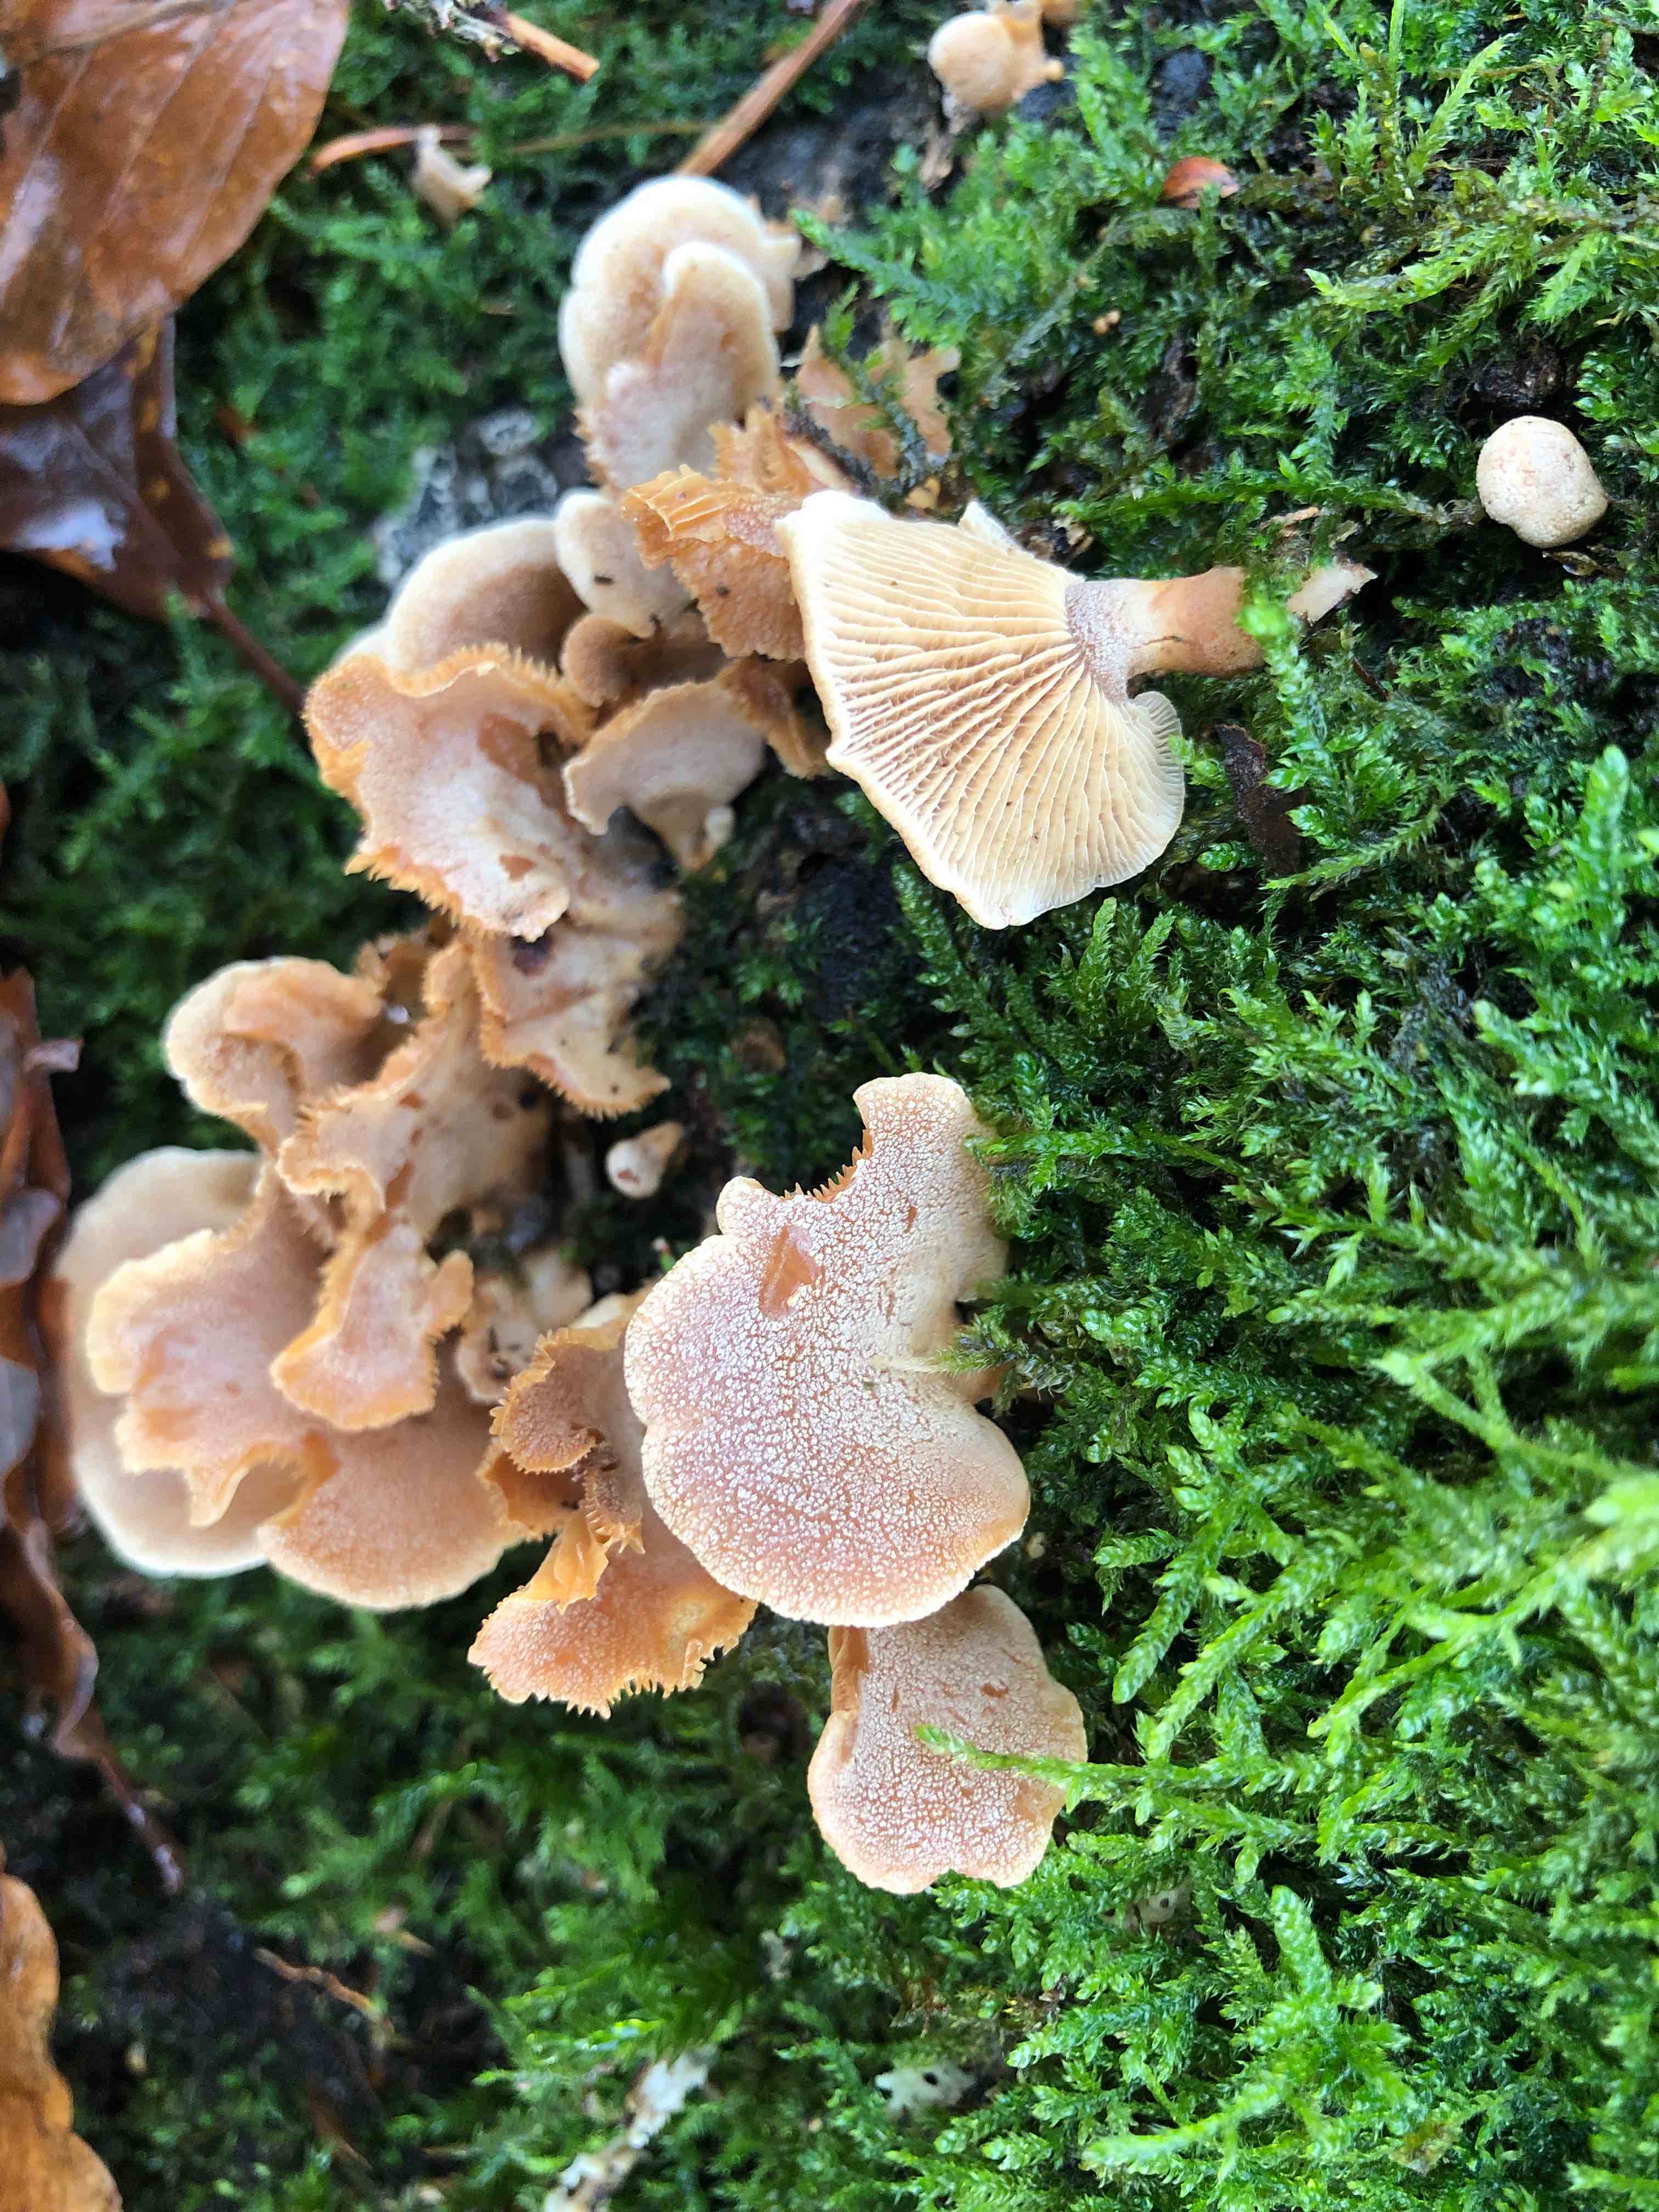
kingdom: Fungi
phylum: Basidiomycota
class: Agaricomycetes
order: Agaricales
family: Mycenaceae
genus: Panellus
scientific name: Panellus stipticus
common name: kliddet epaulethat
